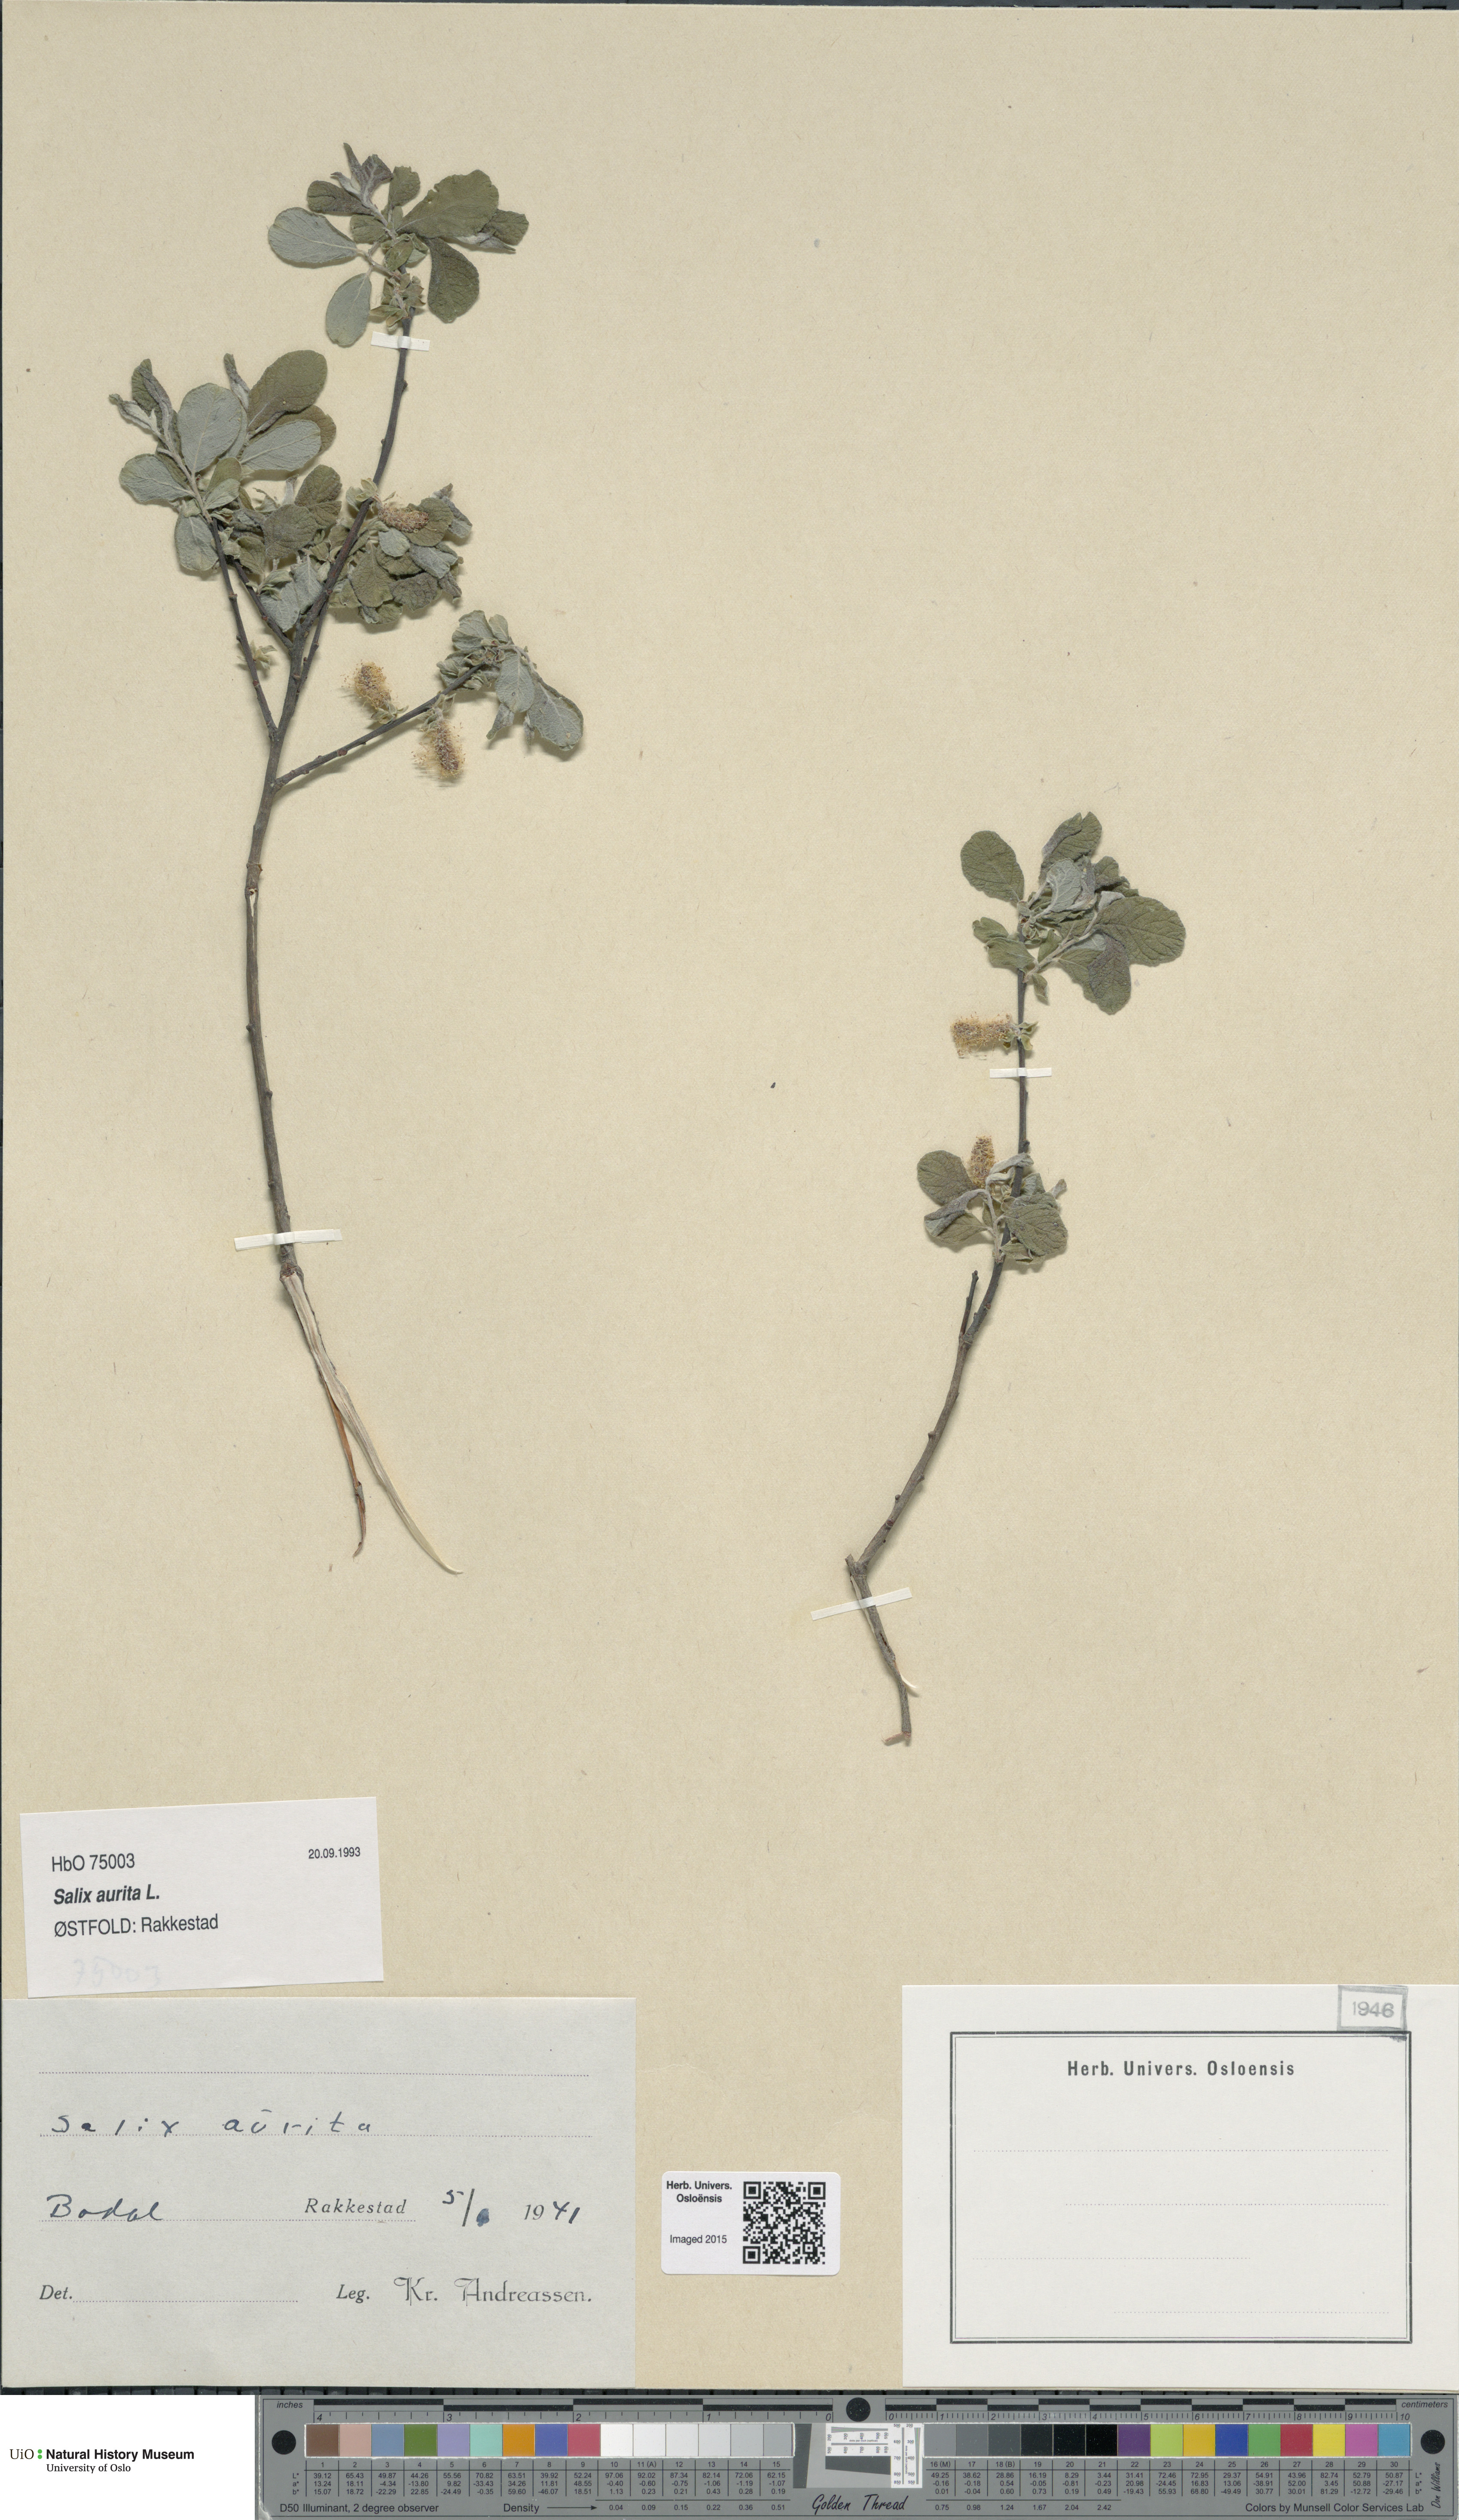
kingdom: Plantae
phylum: Tracheophyta
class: Magnoliopsida
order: Malpighiales
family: Salicaceae
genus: Salix
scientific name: Salix aurita
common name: Eared willow
